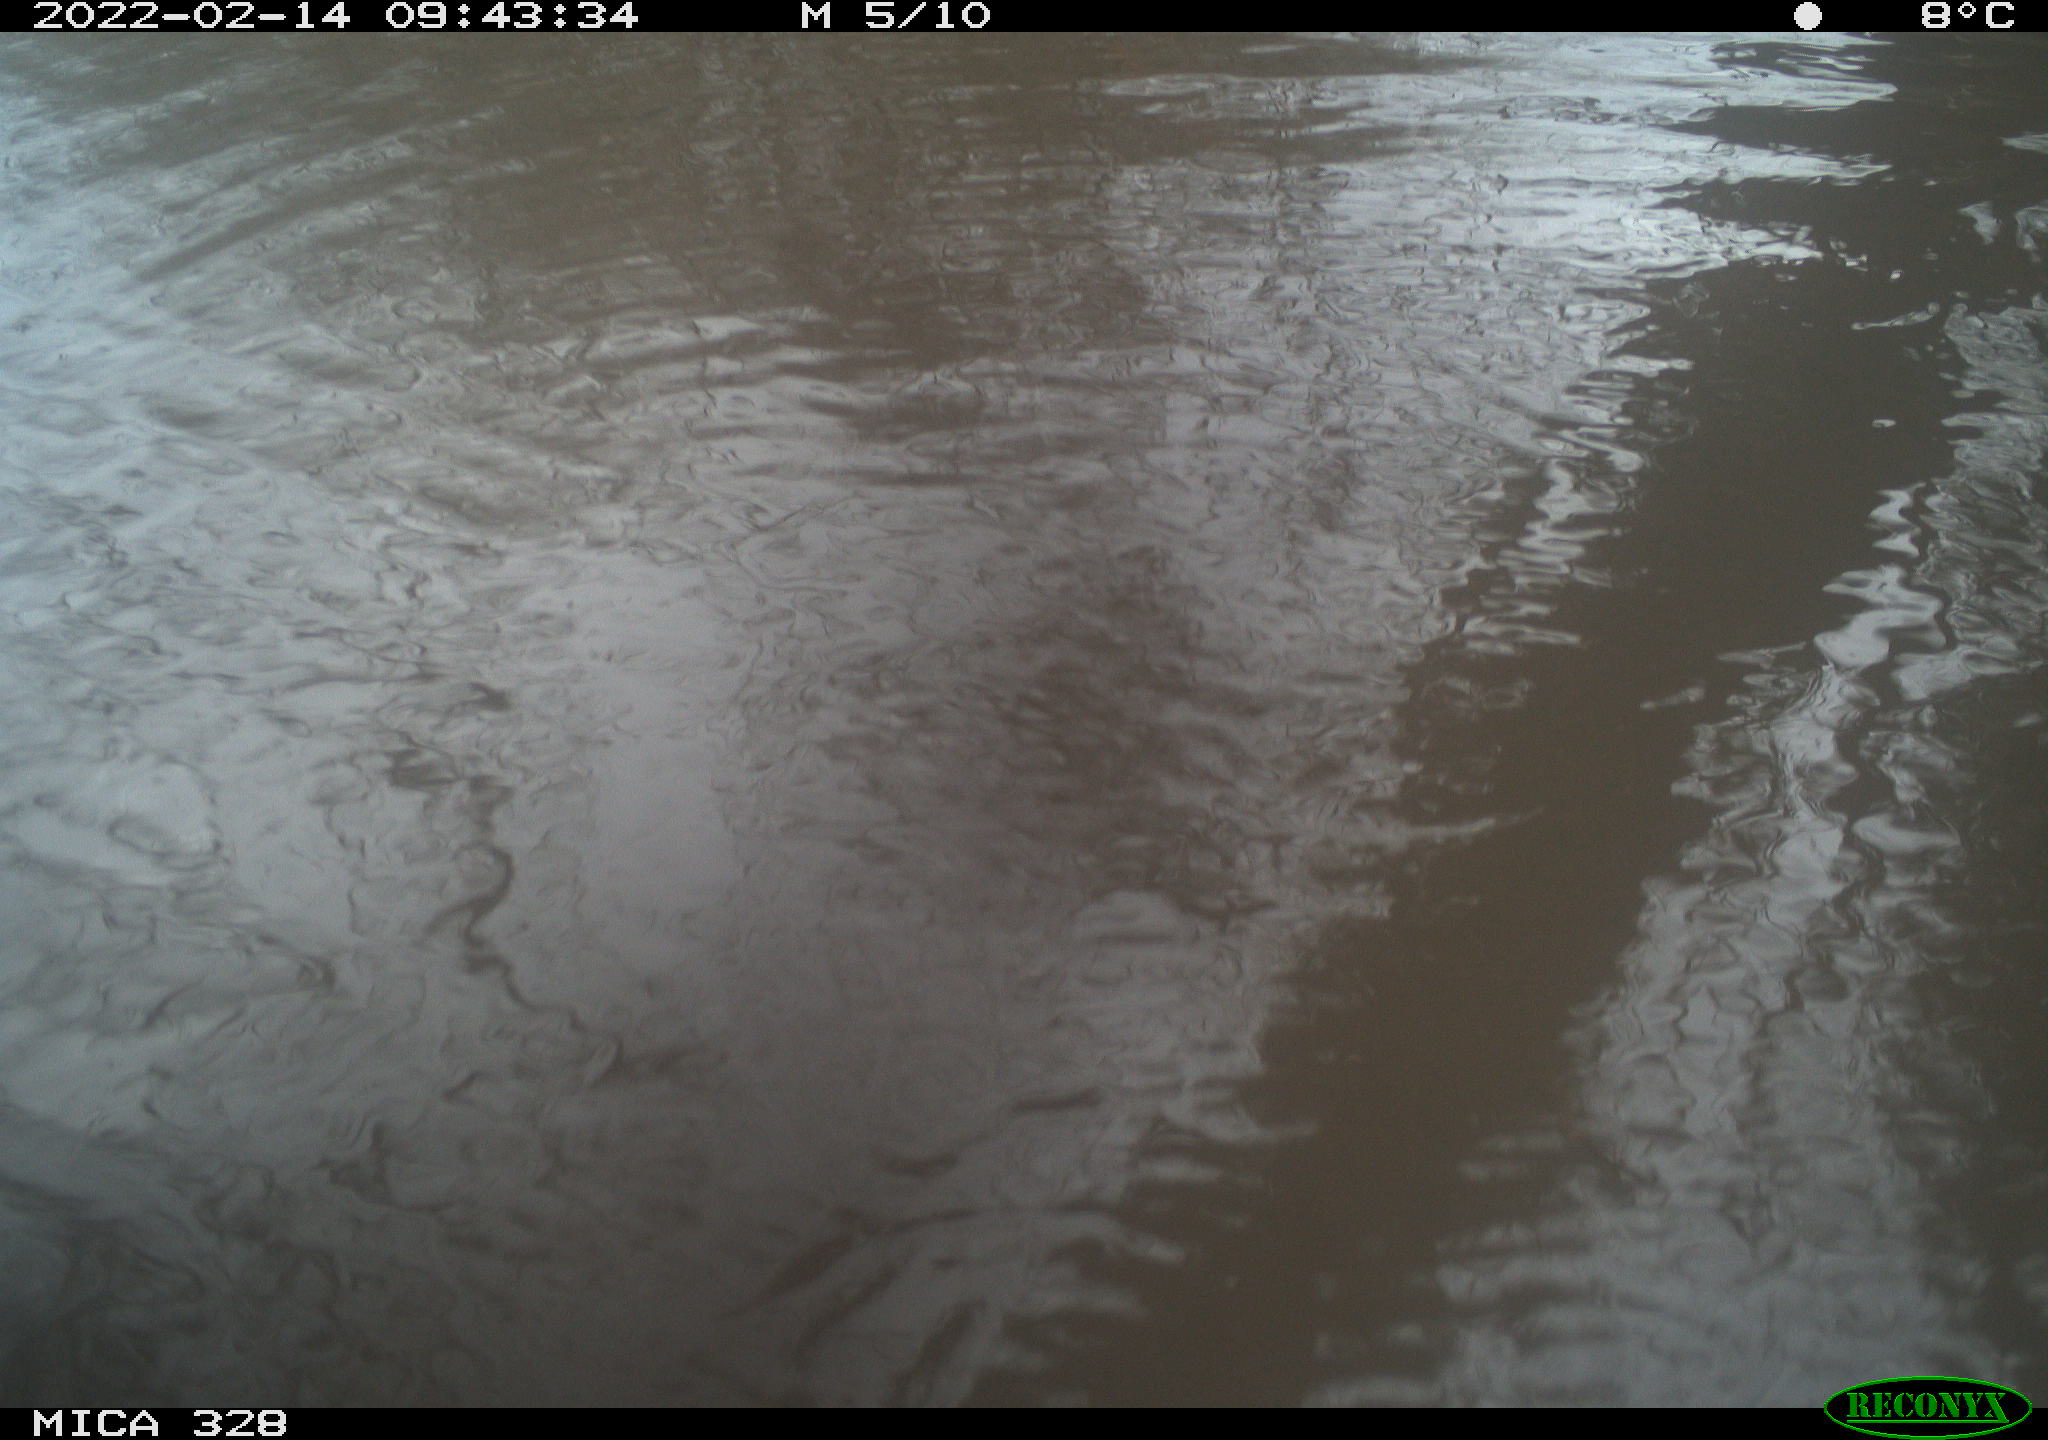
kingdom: Animalia
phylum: Chordata
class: Mammalia
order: Rodentia
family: Cricetidae
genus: Ondatra
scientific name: Ondatra zibethicus
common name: Muskrat
